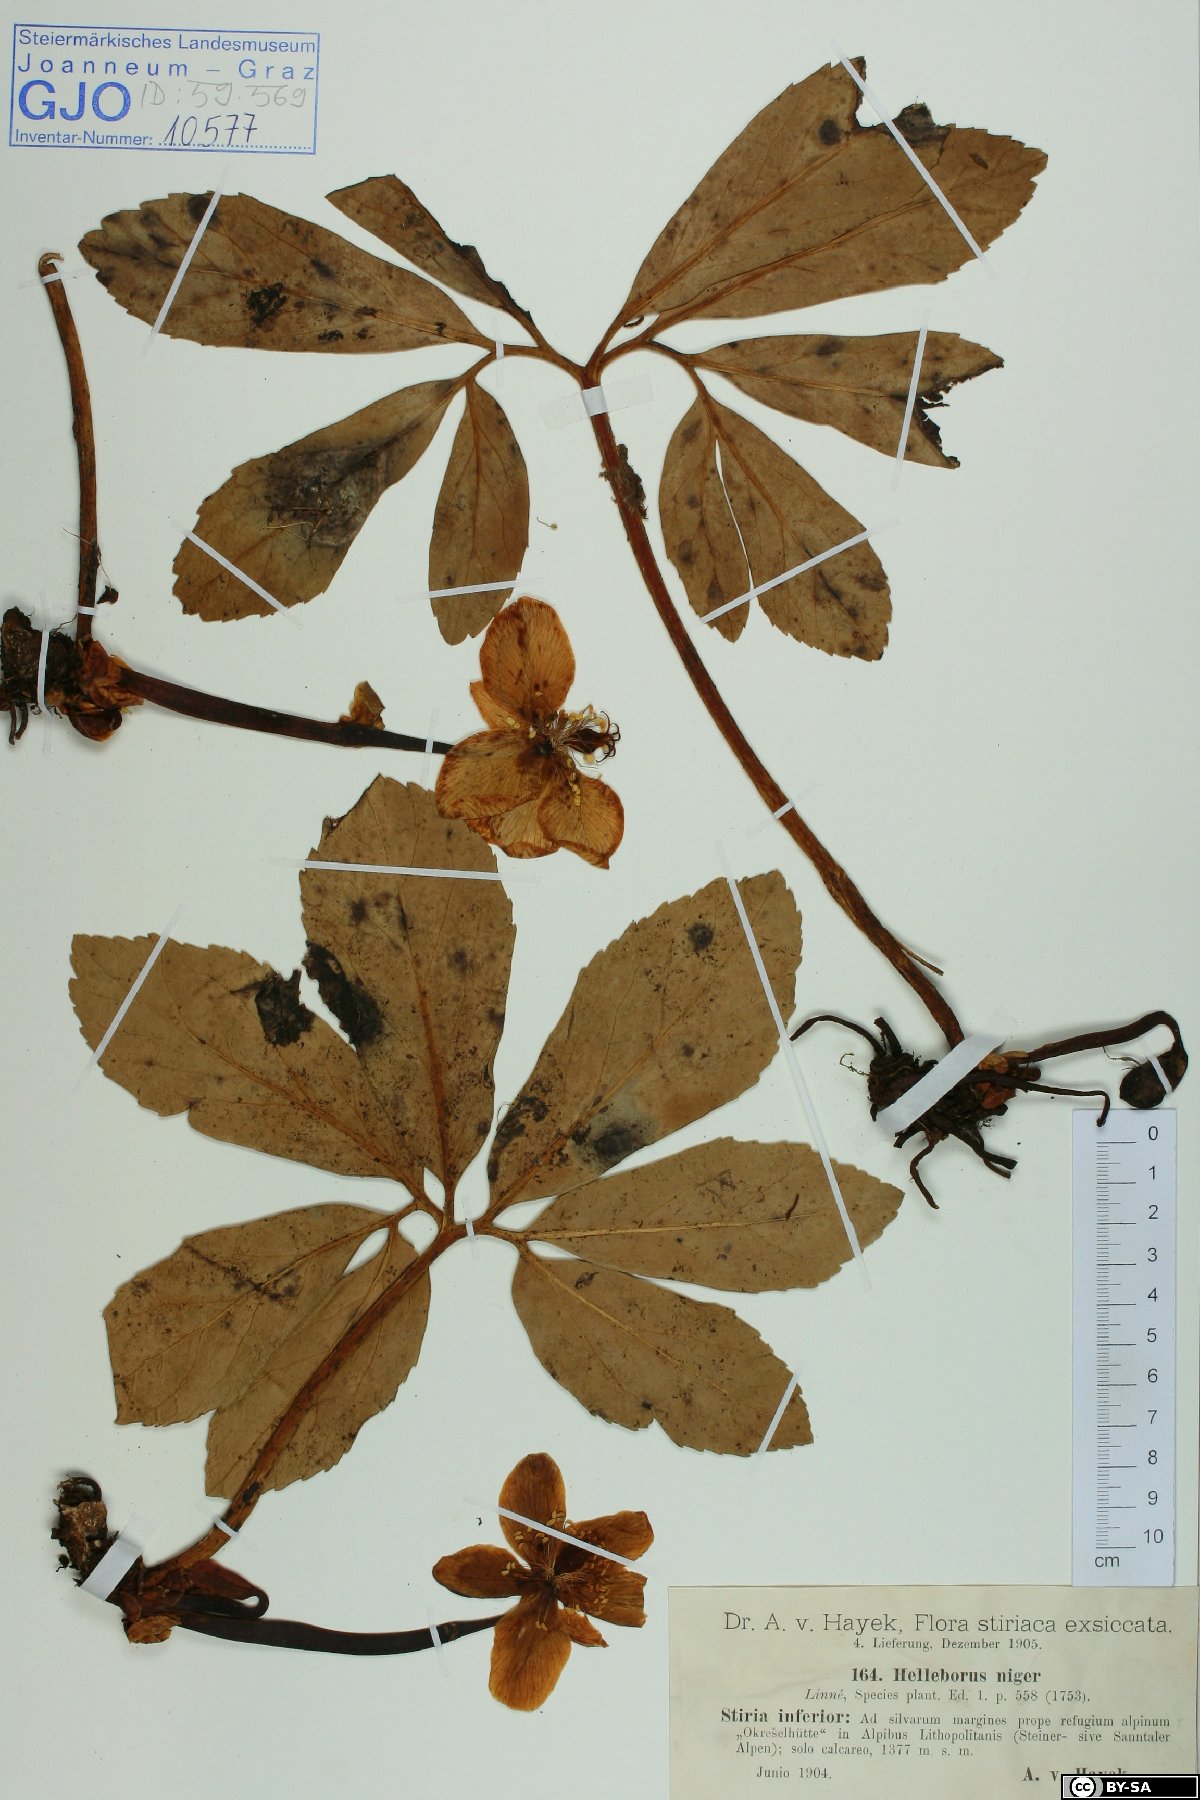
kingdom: Plantae
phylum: Tracheophyta
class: Magnoliopsida
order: Ranunculales
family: Ranunculaceae
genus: Helleborus
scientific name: Helleborus niger
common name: Black hellebore
